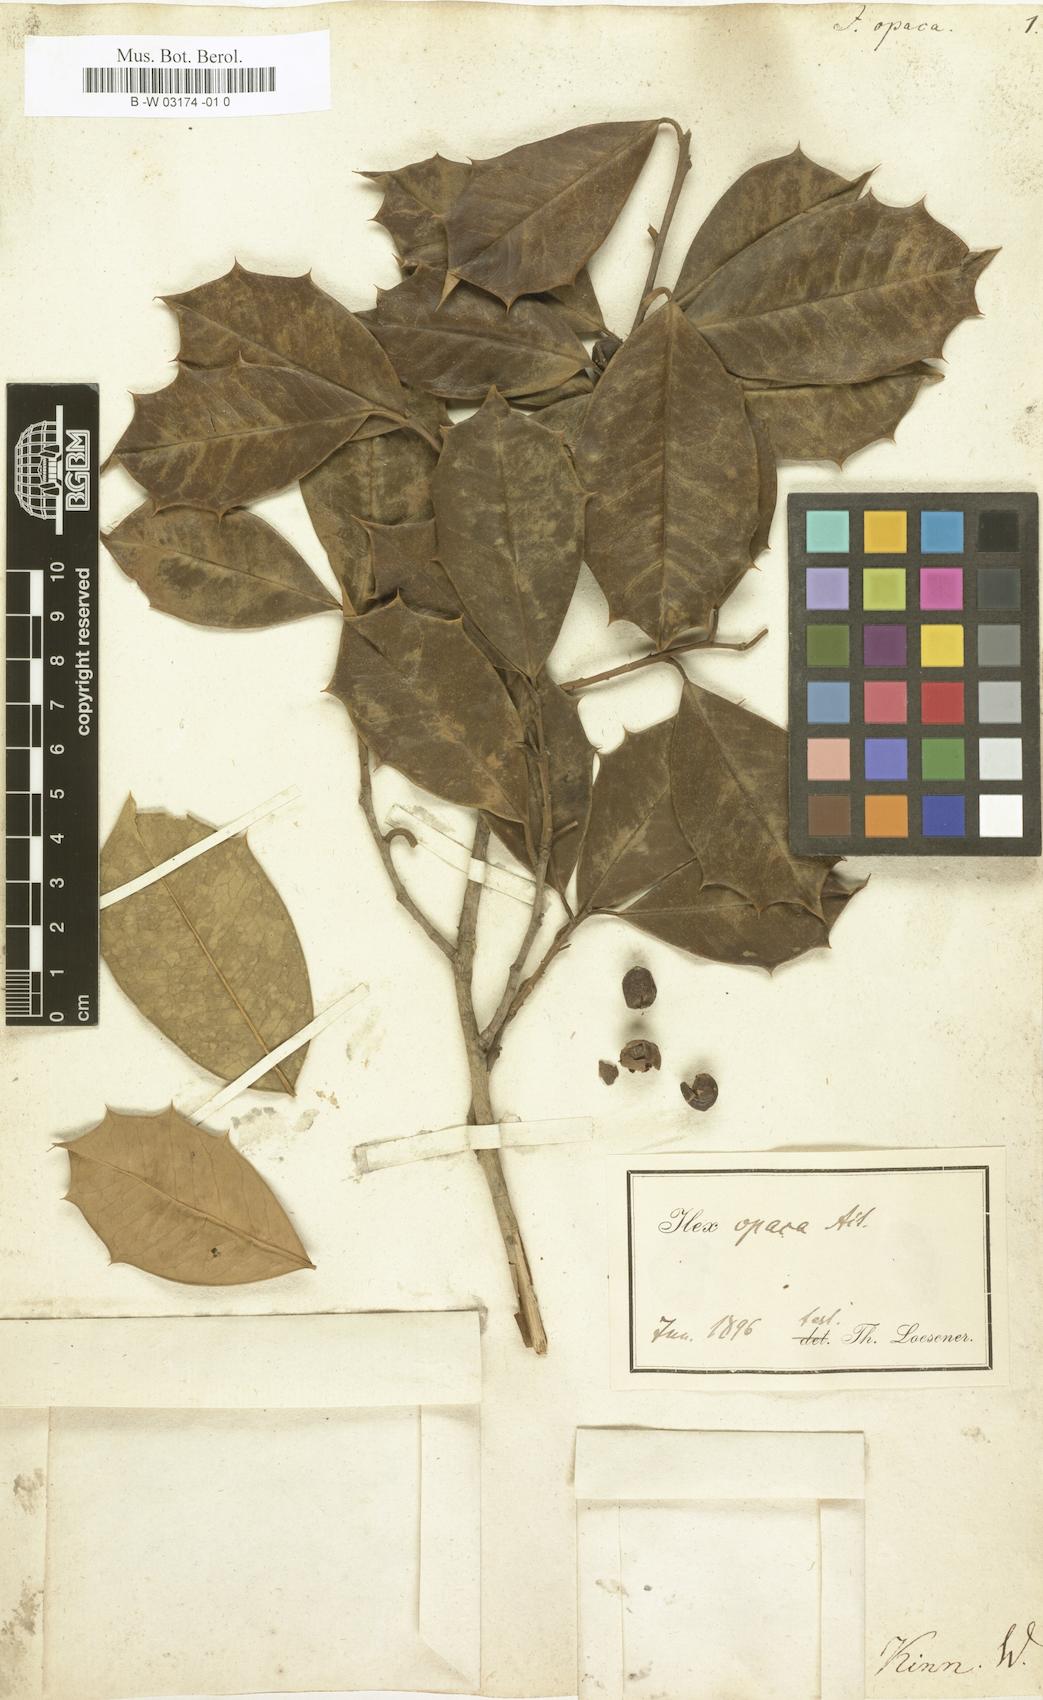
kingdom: Plantae
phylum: Tracheophyta
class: Magnoliopsida
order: Aquifoliales
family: Aquifoliaceae
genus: Ilex
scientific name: Ilex opaca
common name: American holly
